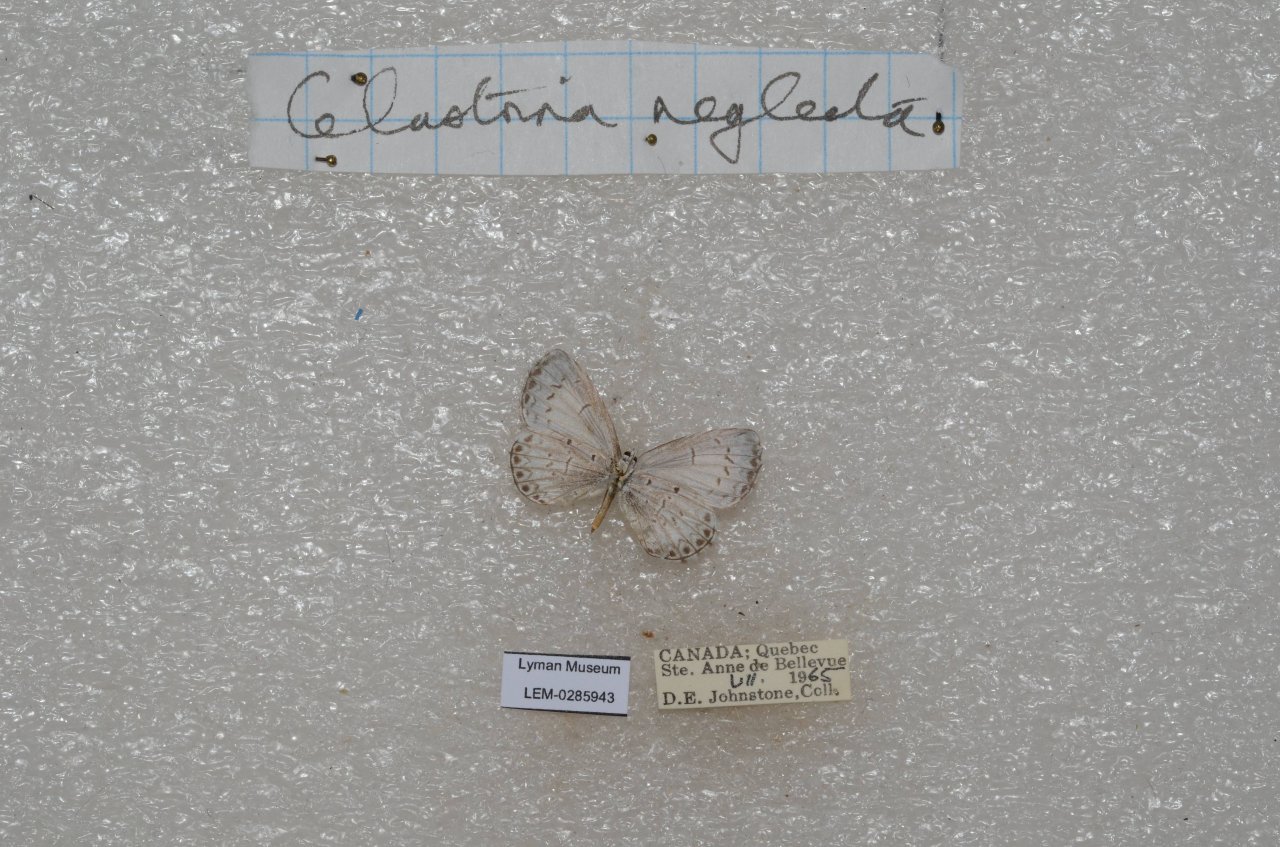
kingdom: Animalia
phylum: Arthropoda
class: Insecta
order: Lepidoptera
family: Lycaenidae
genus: Celastrina
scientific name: Celastrina lucia
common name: Northern Spring Azure
